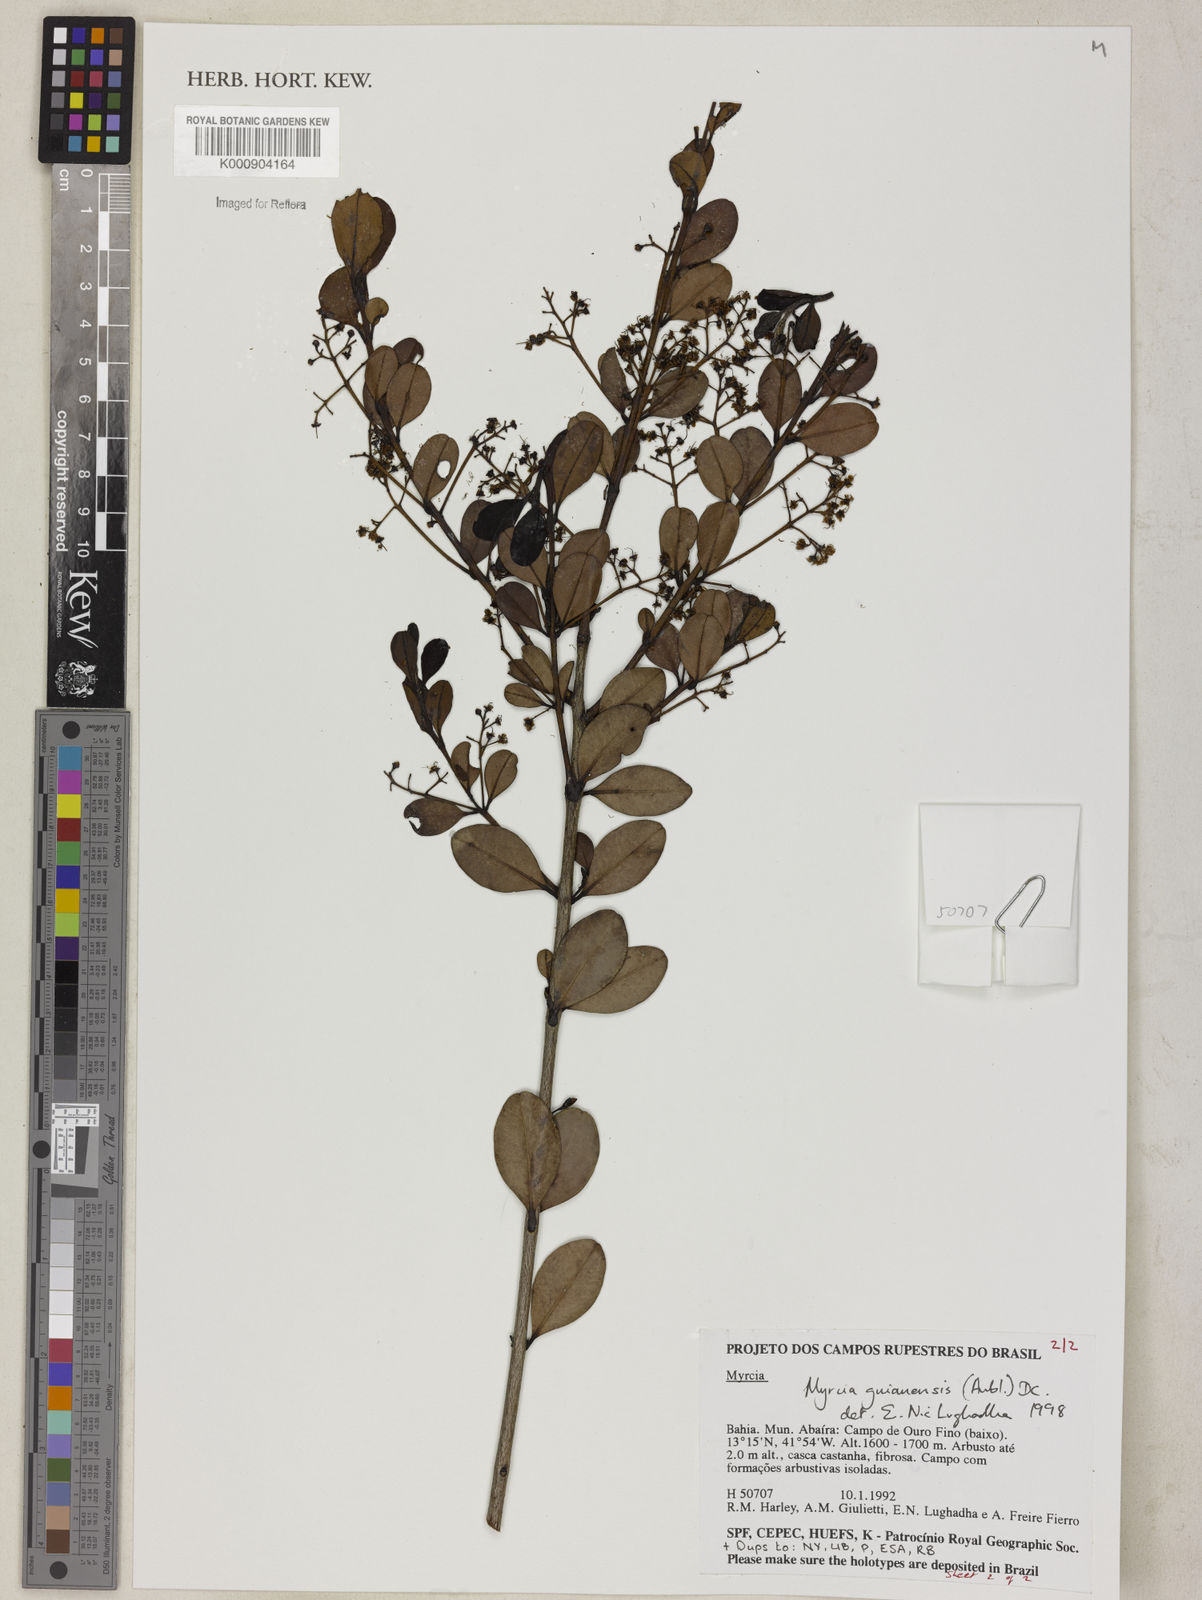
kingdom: Plantae
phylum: Tracheophyta
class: Magnoliopsida
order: Myrtales
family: Myrtaceae
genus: Myrcia
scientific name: Myrcia guianensis
